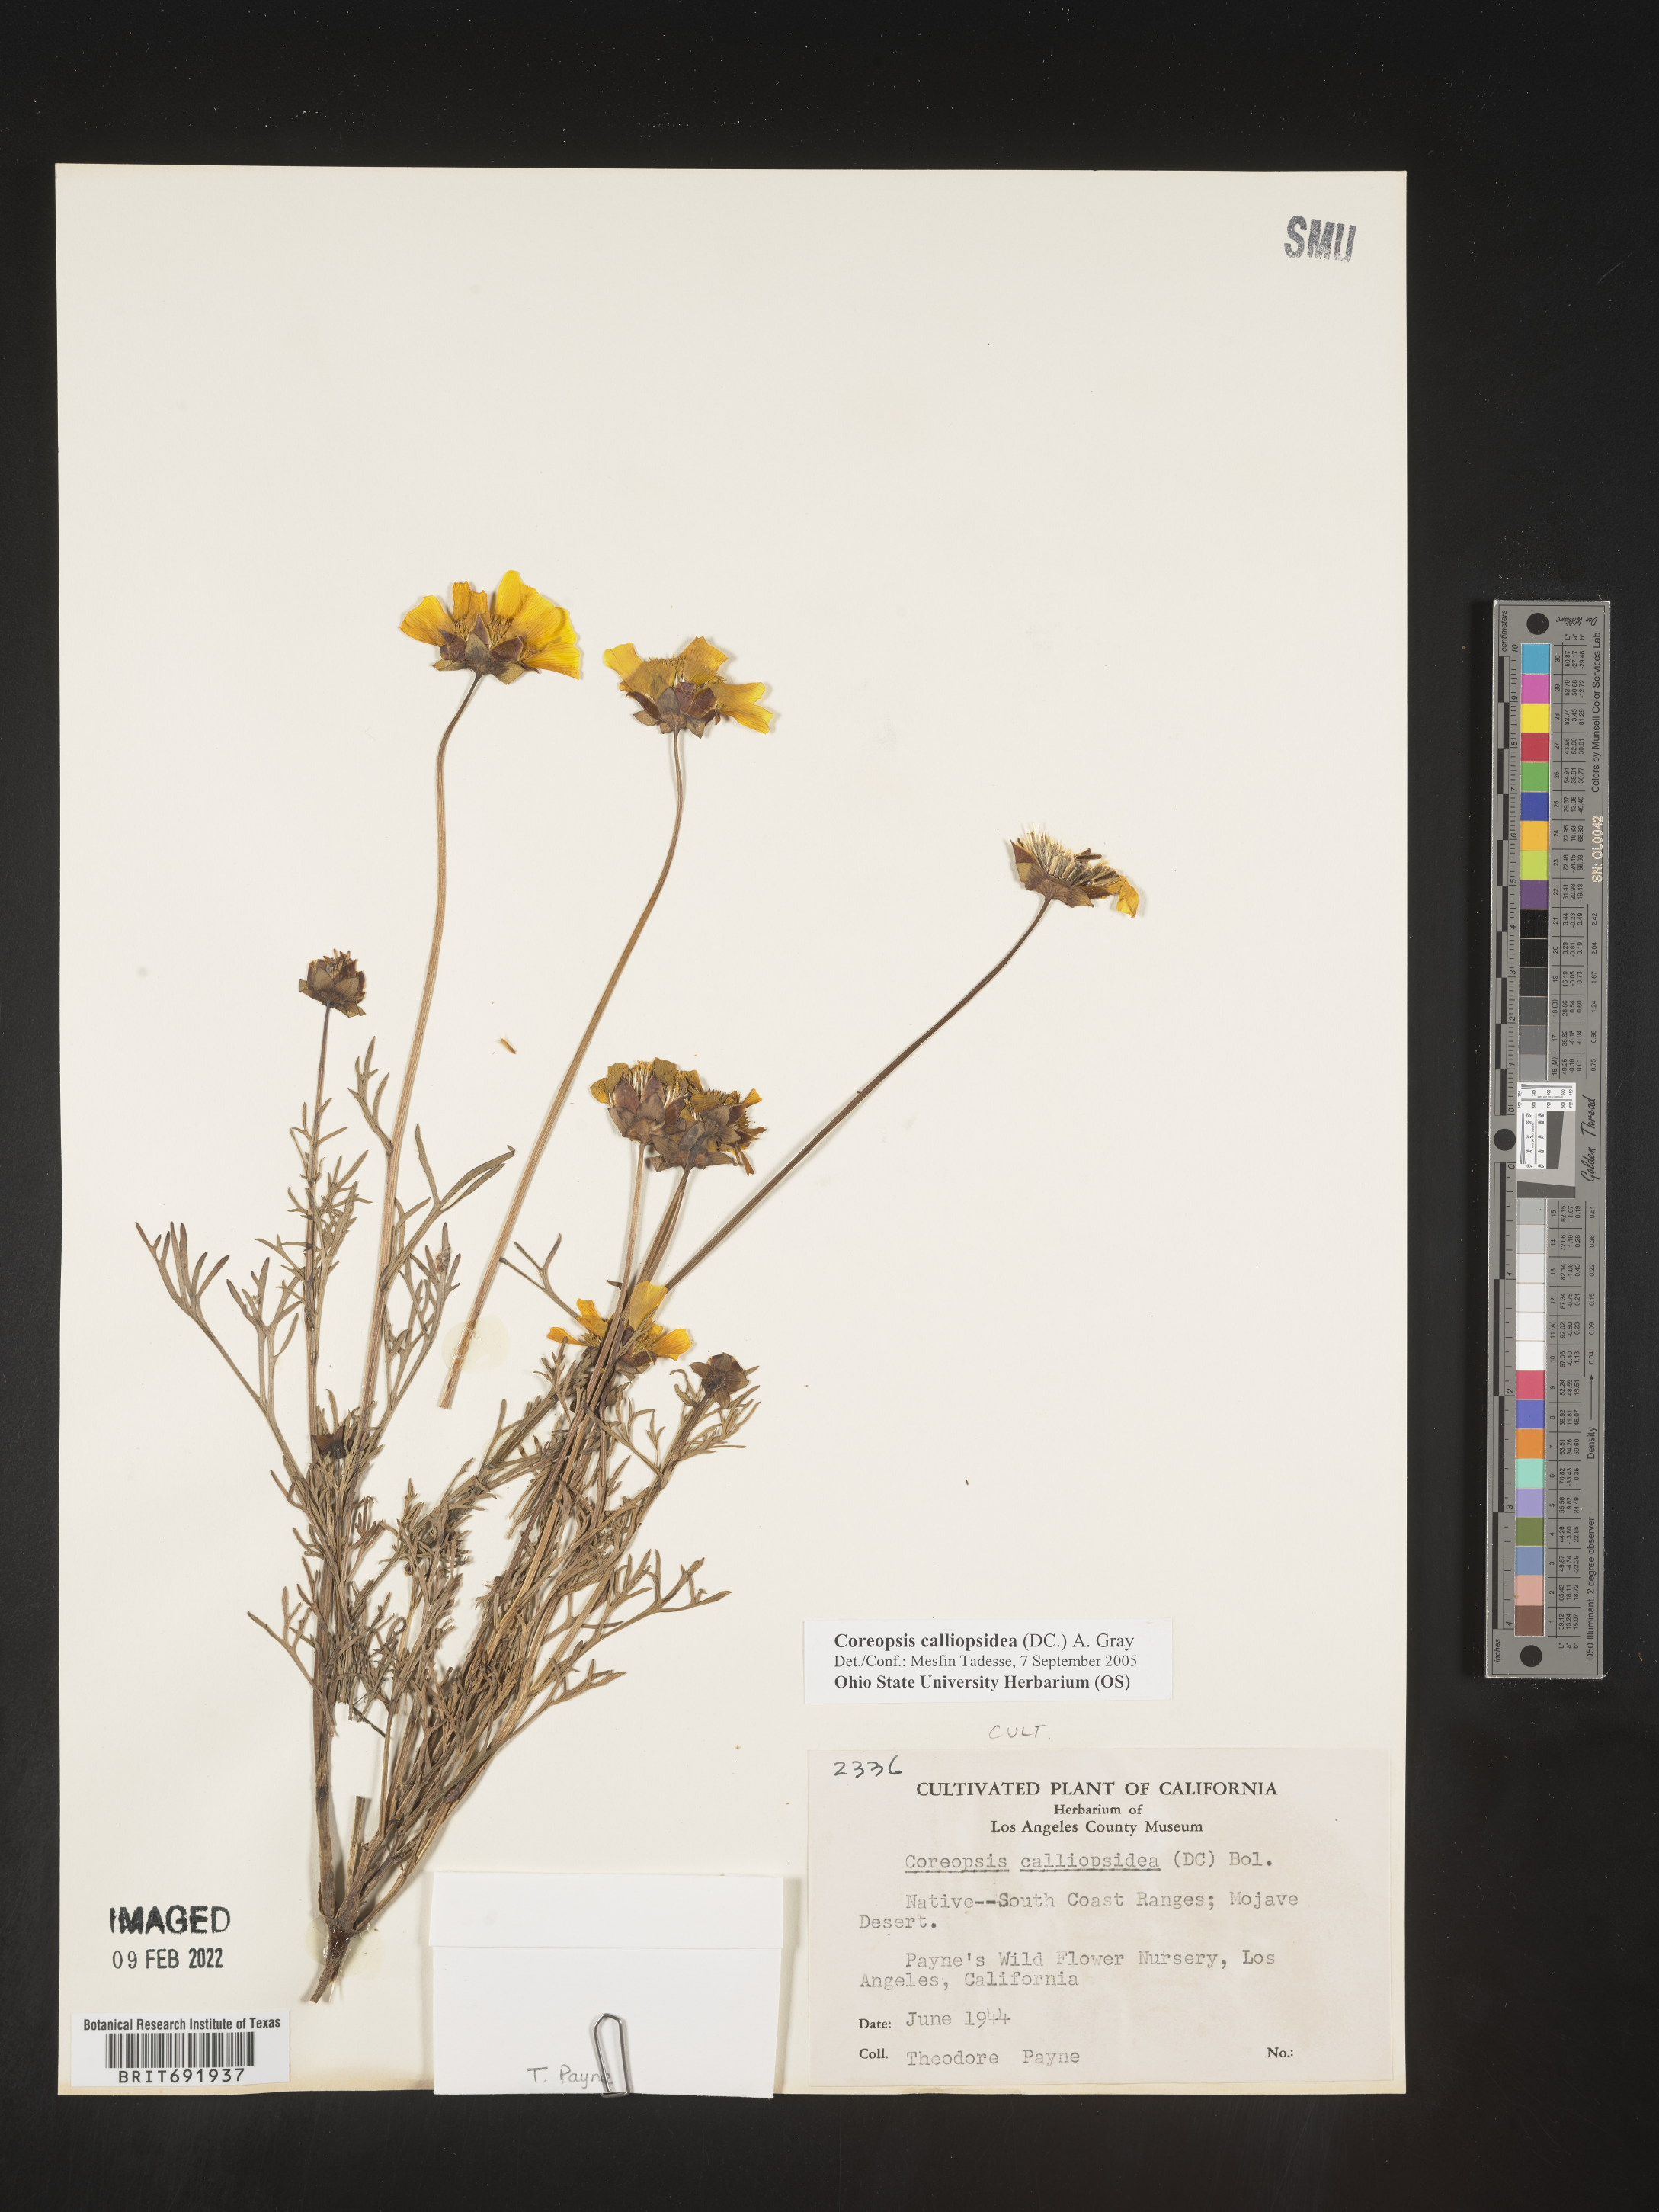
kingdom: Plantae
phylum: Tracheophyta
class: Magnoliopsida
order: Asterales
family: Asteraceae
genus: Coreopsis
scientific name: Coreopsis
